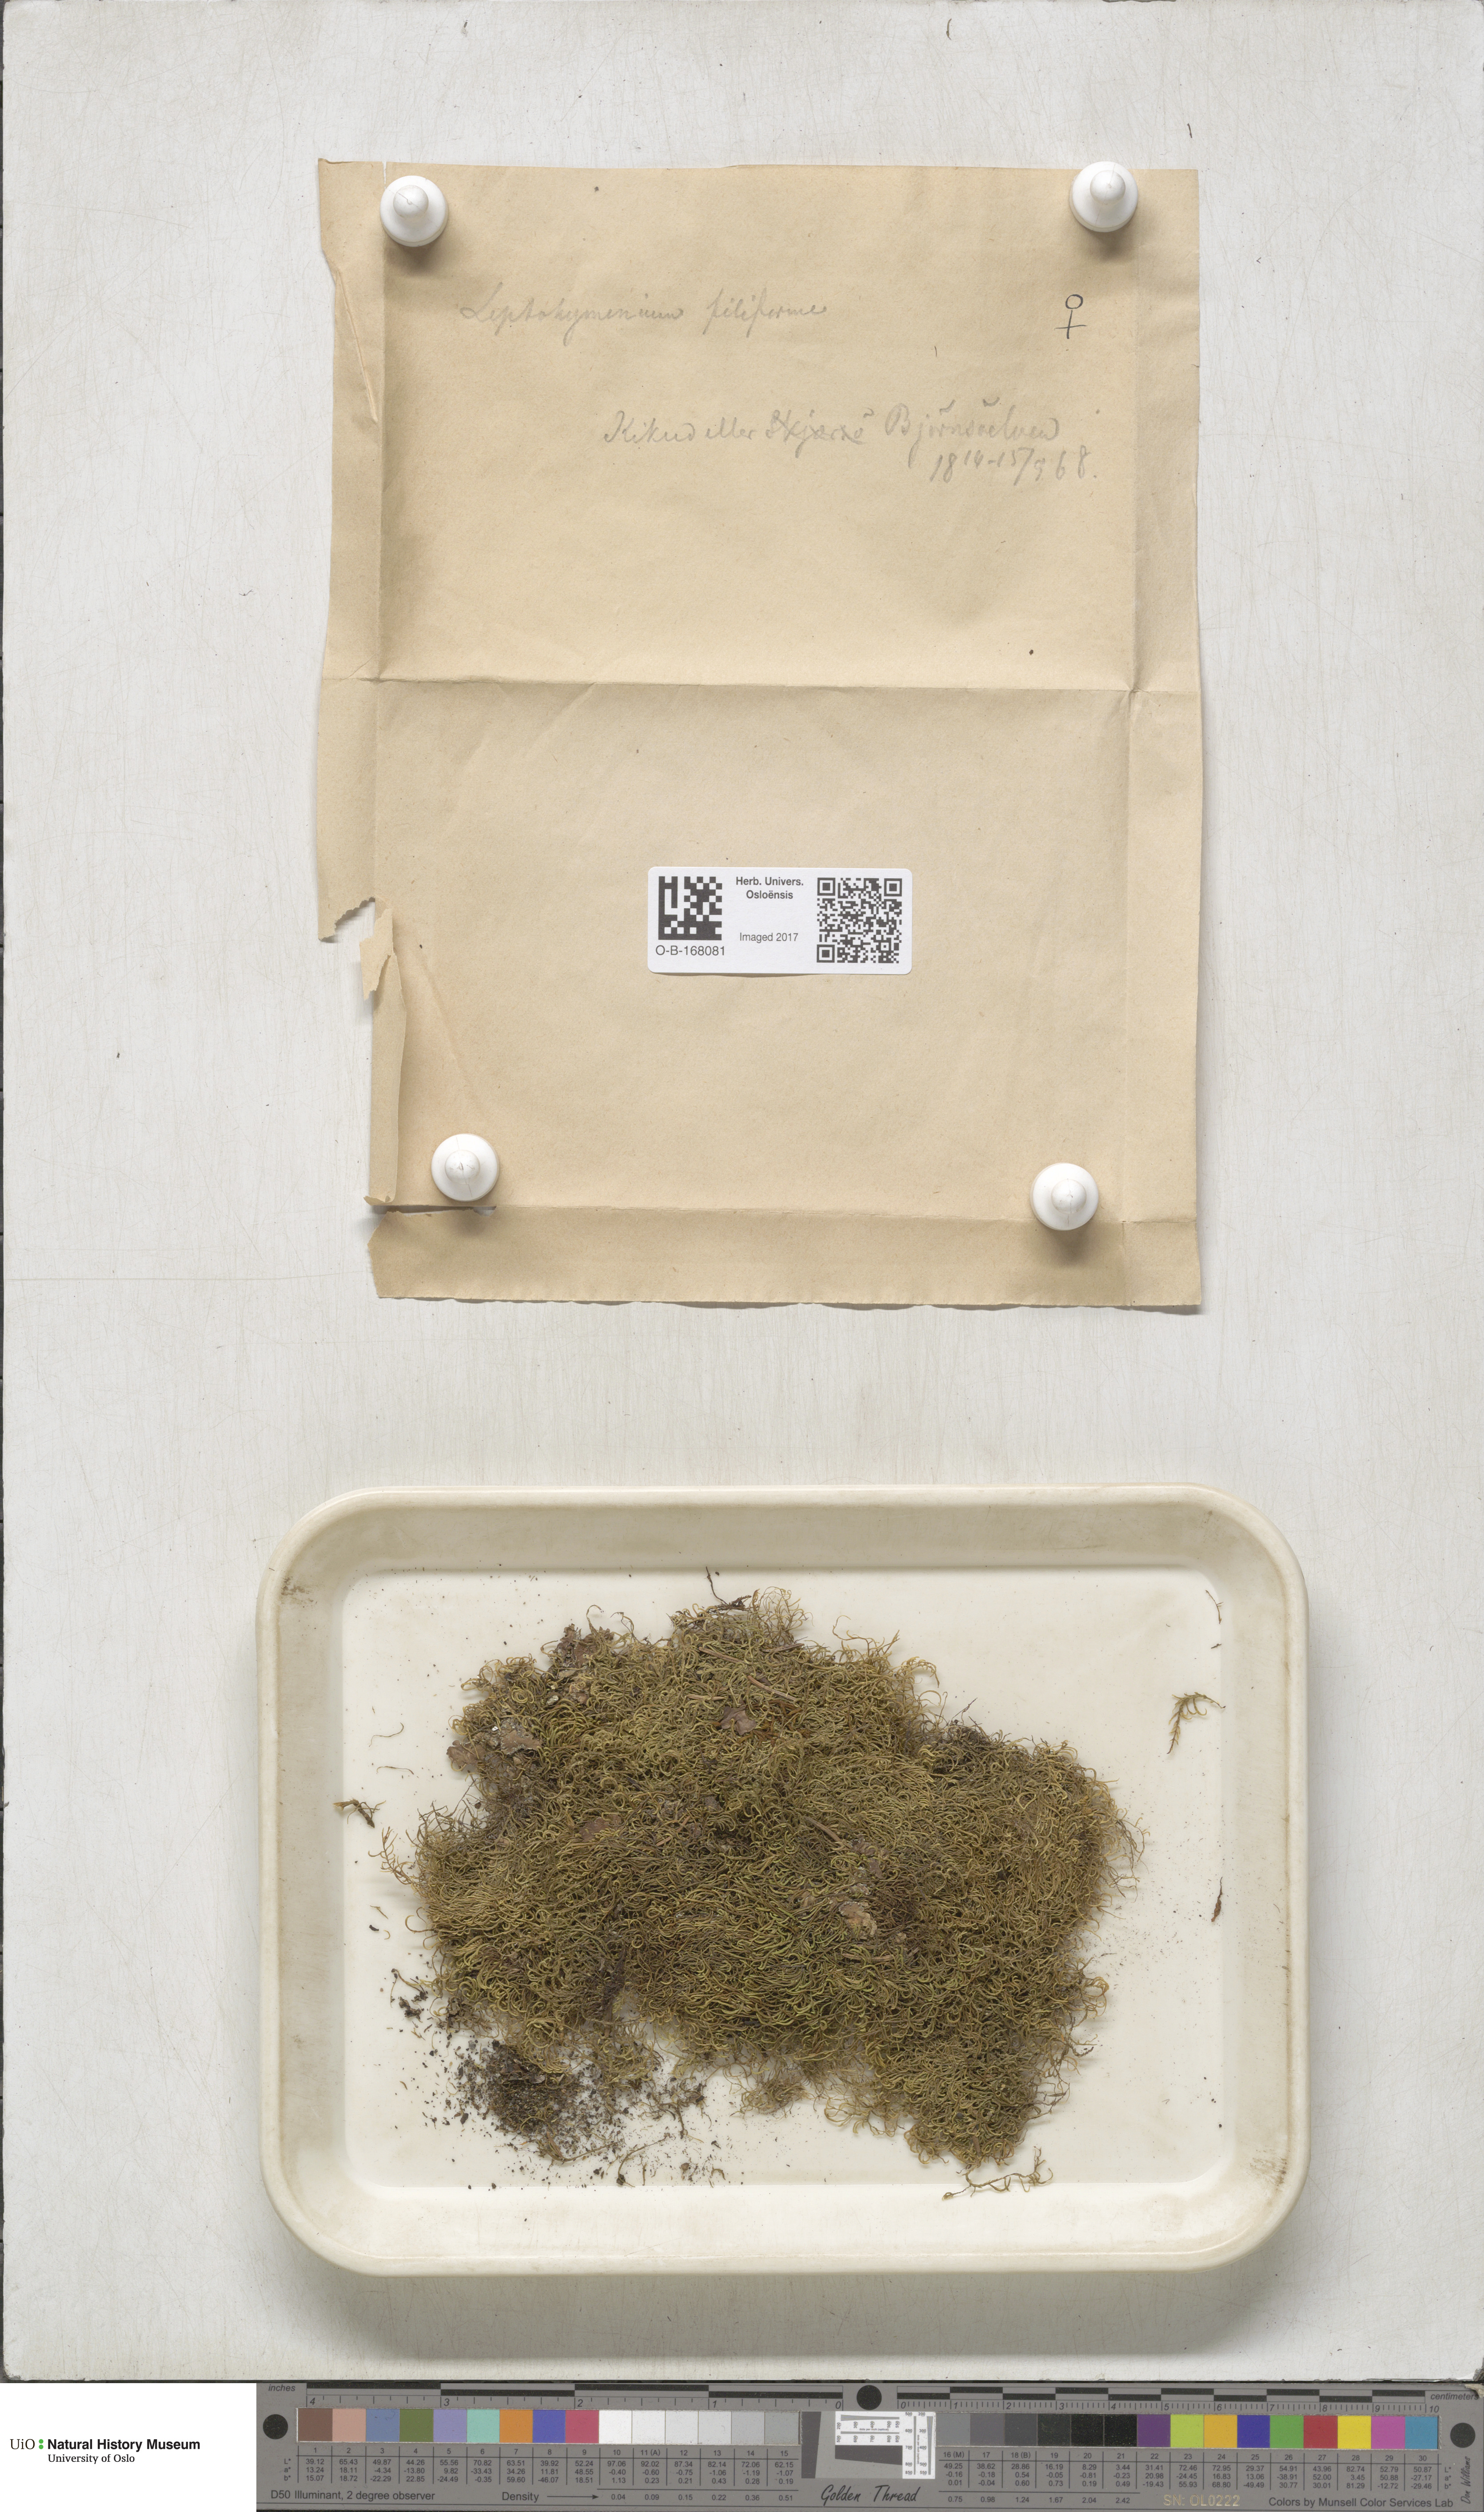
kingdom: Plantae
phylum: Bryophyta
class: Bryopsida
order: Hypnales
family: Pterigynandraceae
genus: Pterigynandrum
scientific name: Pterigynandrum filiforme
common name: Capillary wing moss
